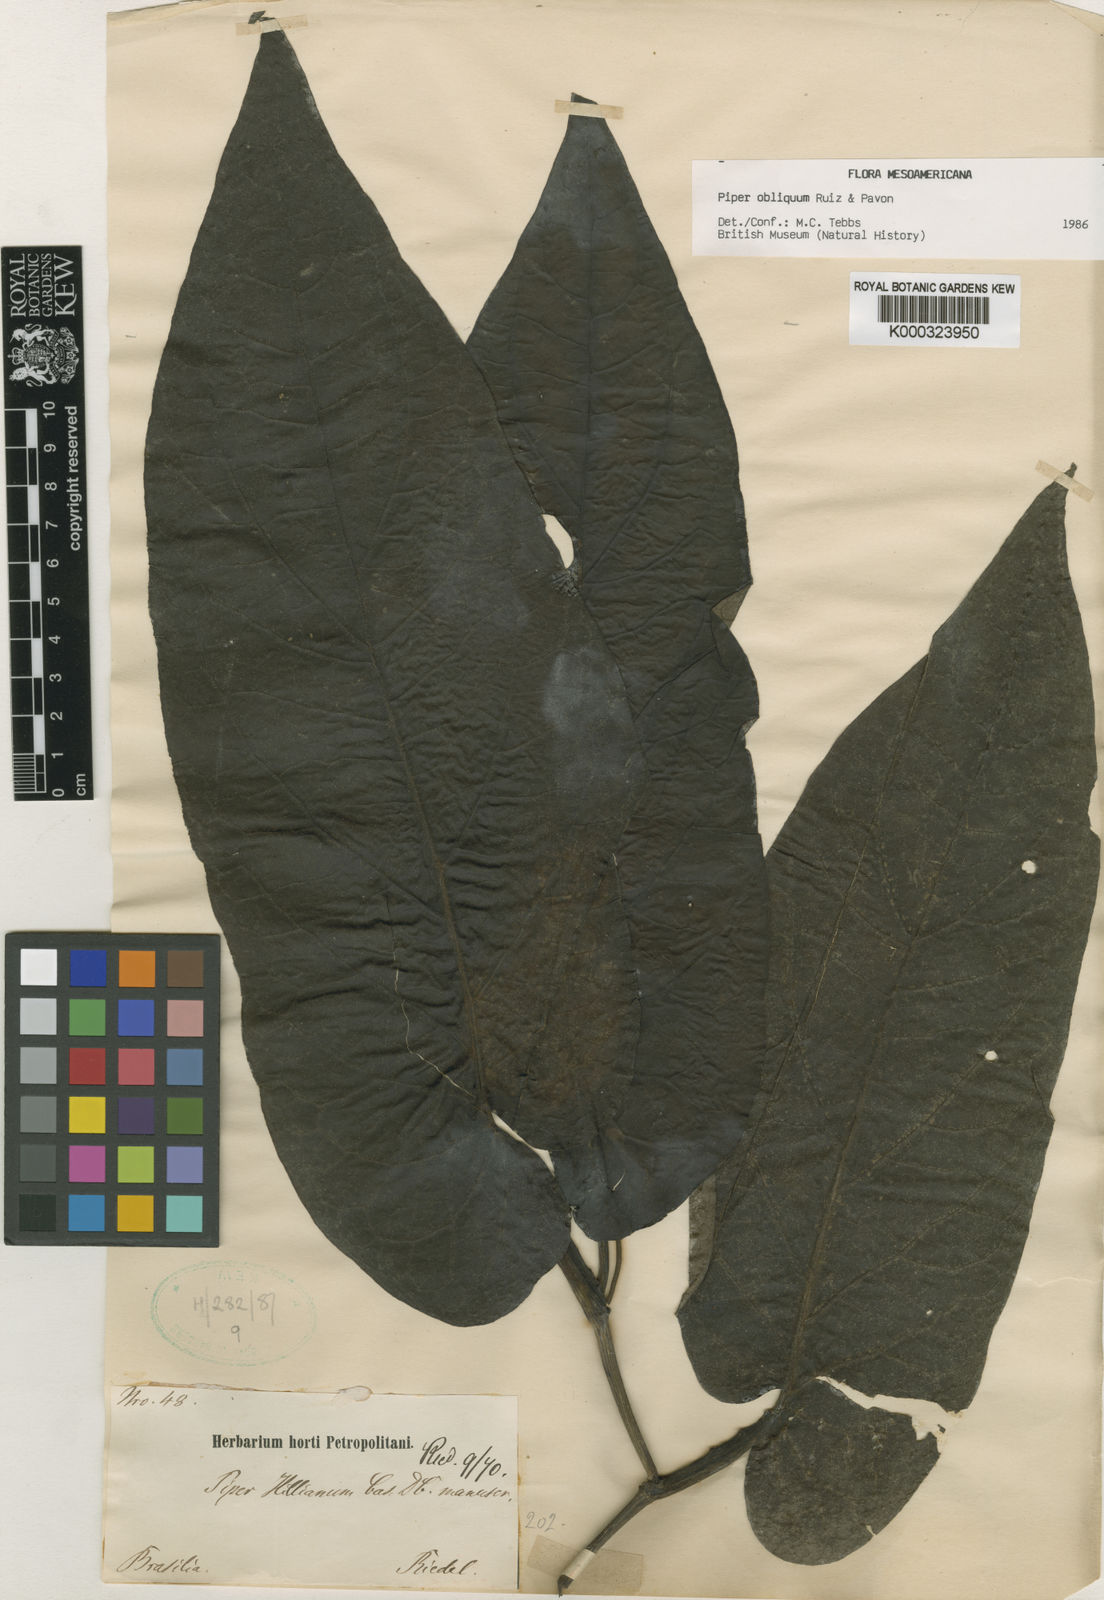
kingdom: Plantae
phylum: Tracheophyta
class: Magnoliopsida
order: Piperales
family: Piperaceae
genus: Piper
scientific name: Piper obliquum
